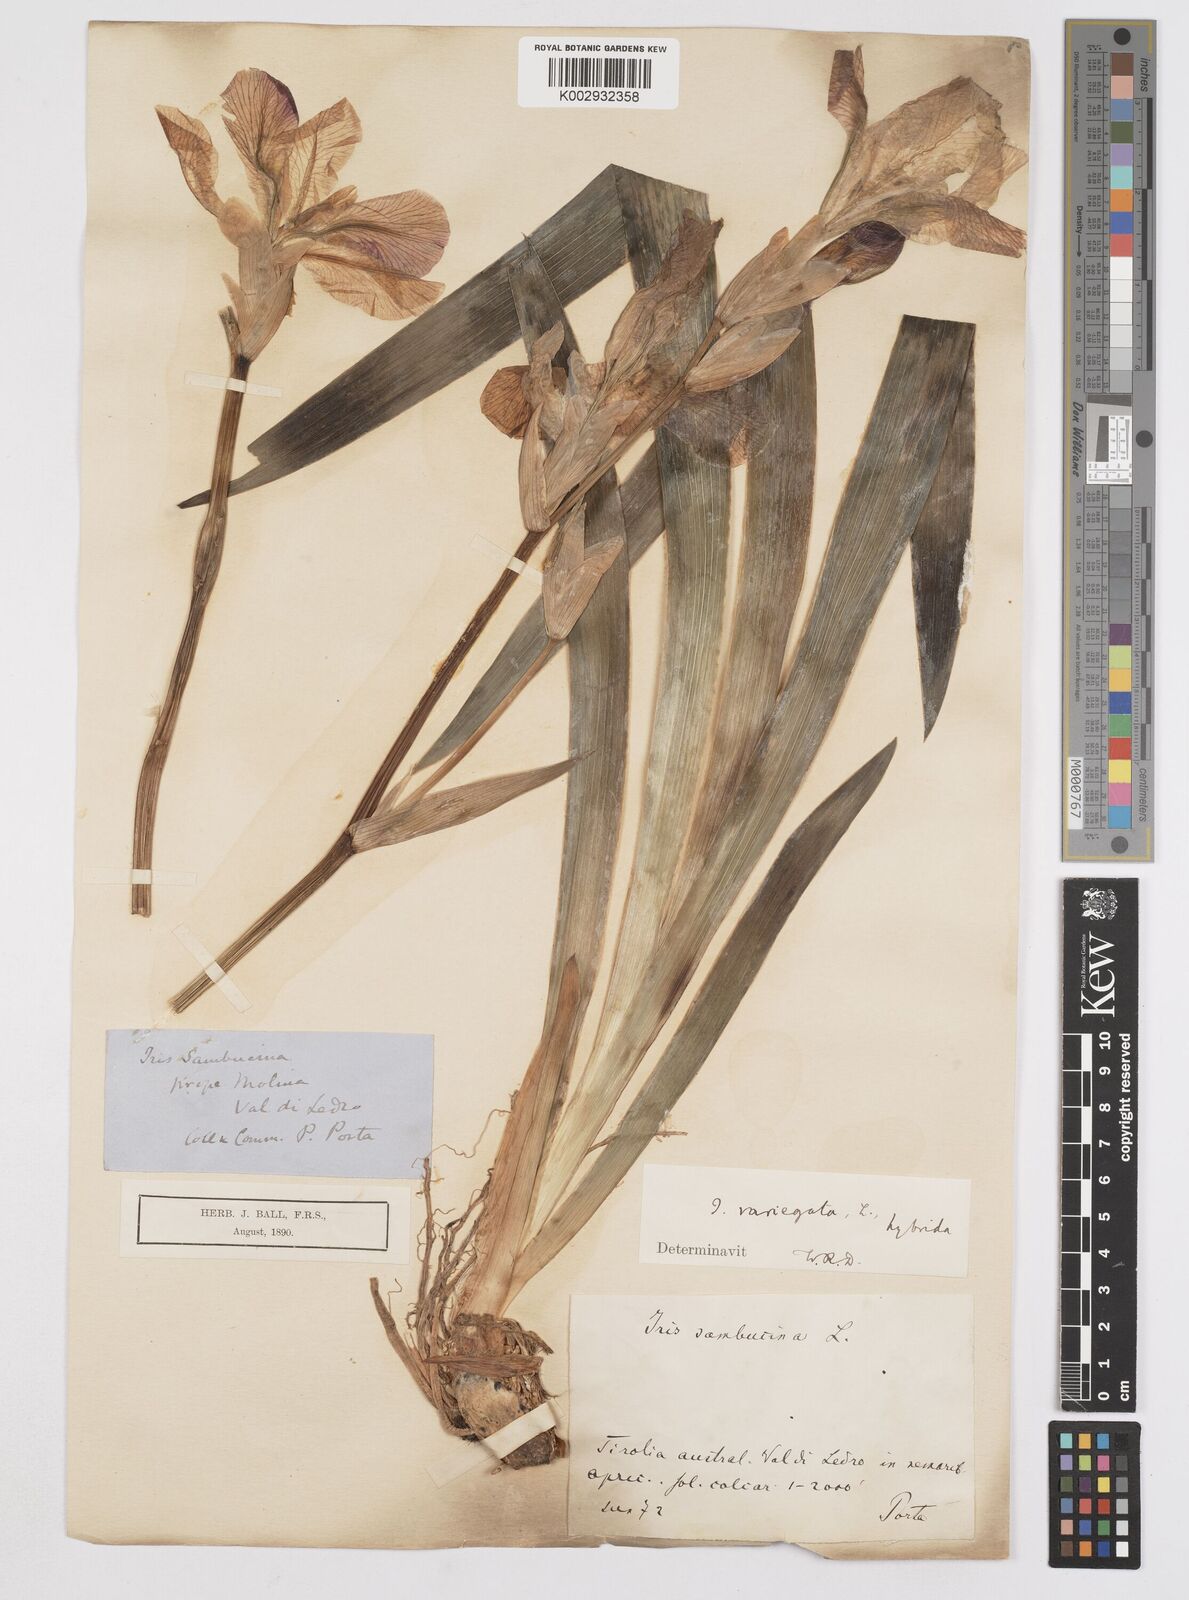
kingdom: Plantae
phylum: Tracheophyta
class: Liliopsida
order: Asparagales
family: Iridaceae
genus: Iris
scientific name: Iris germanica
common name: German iris
